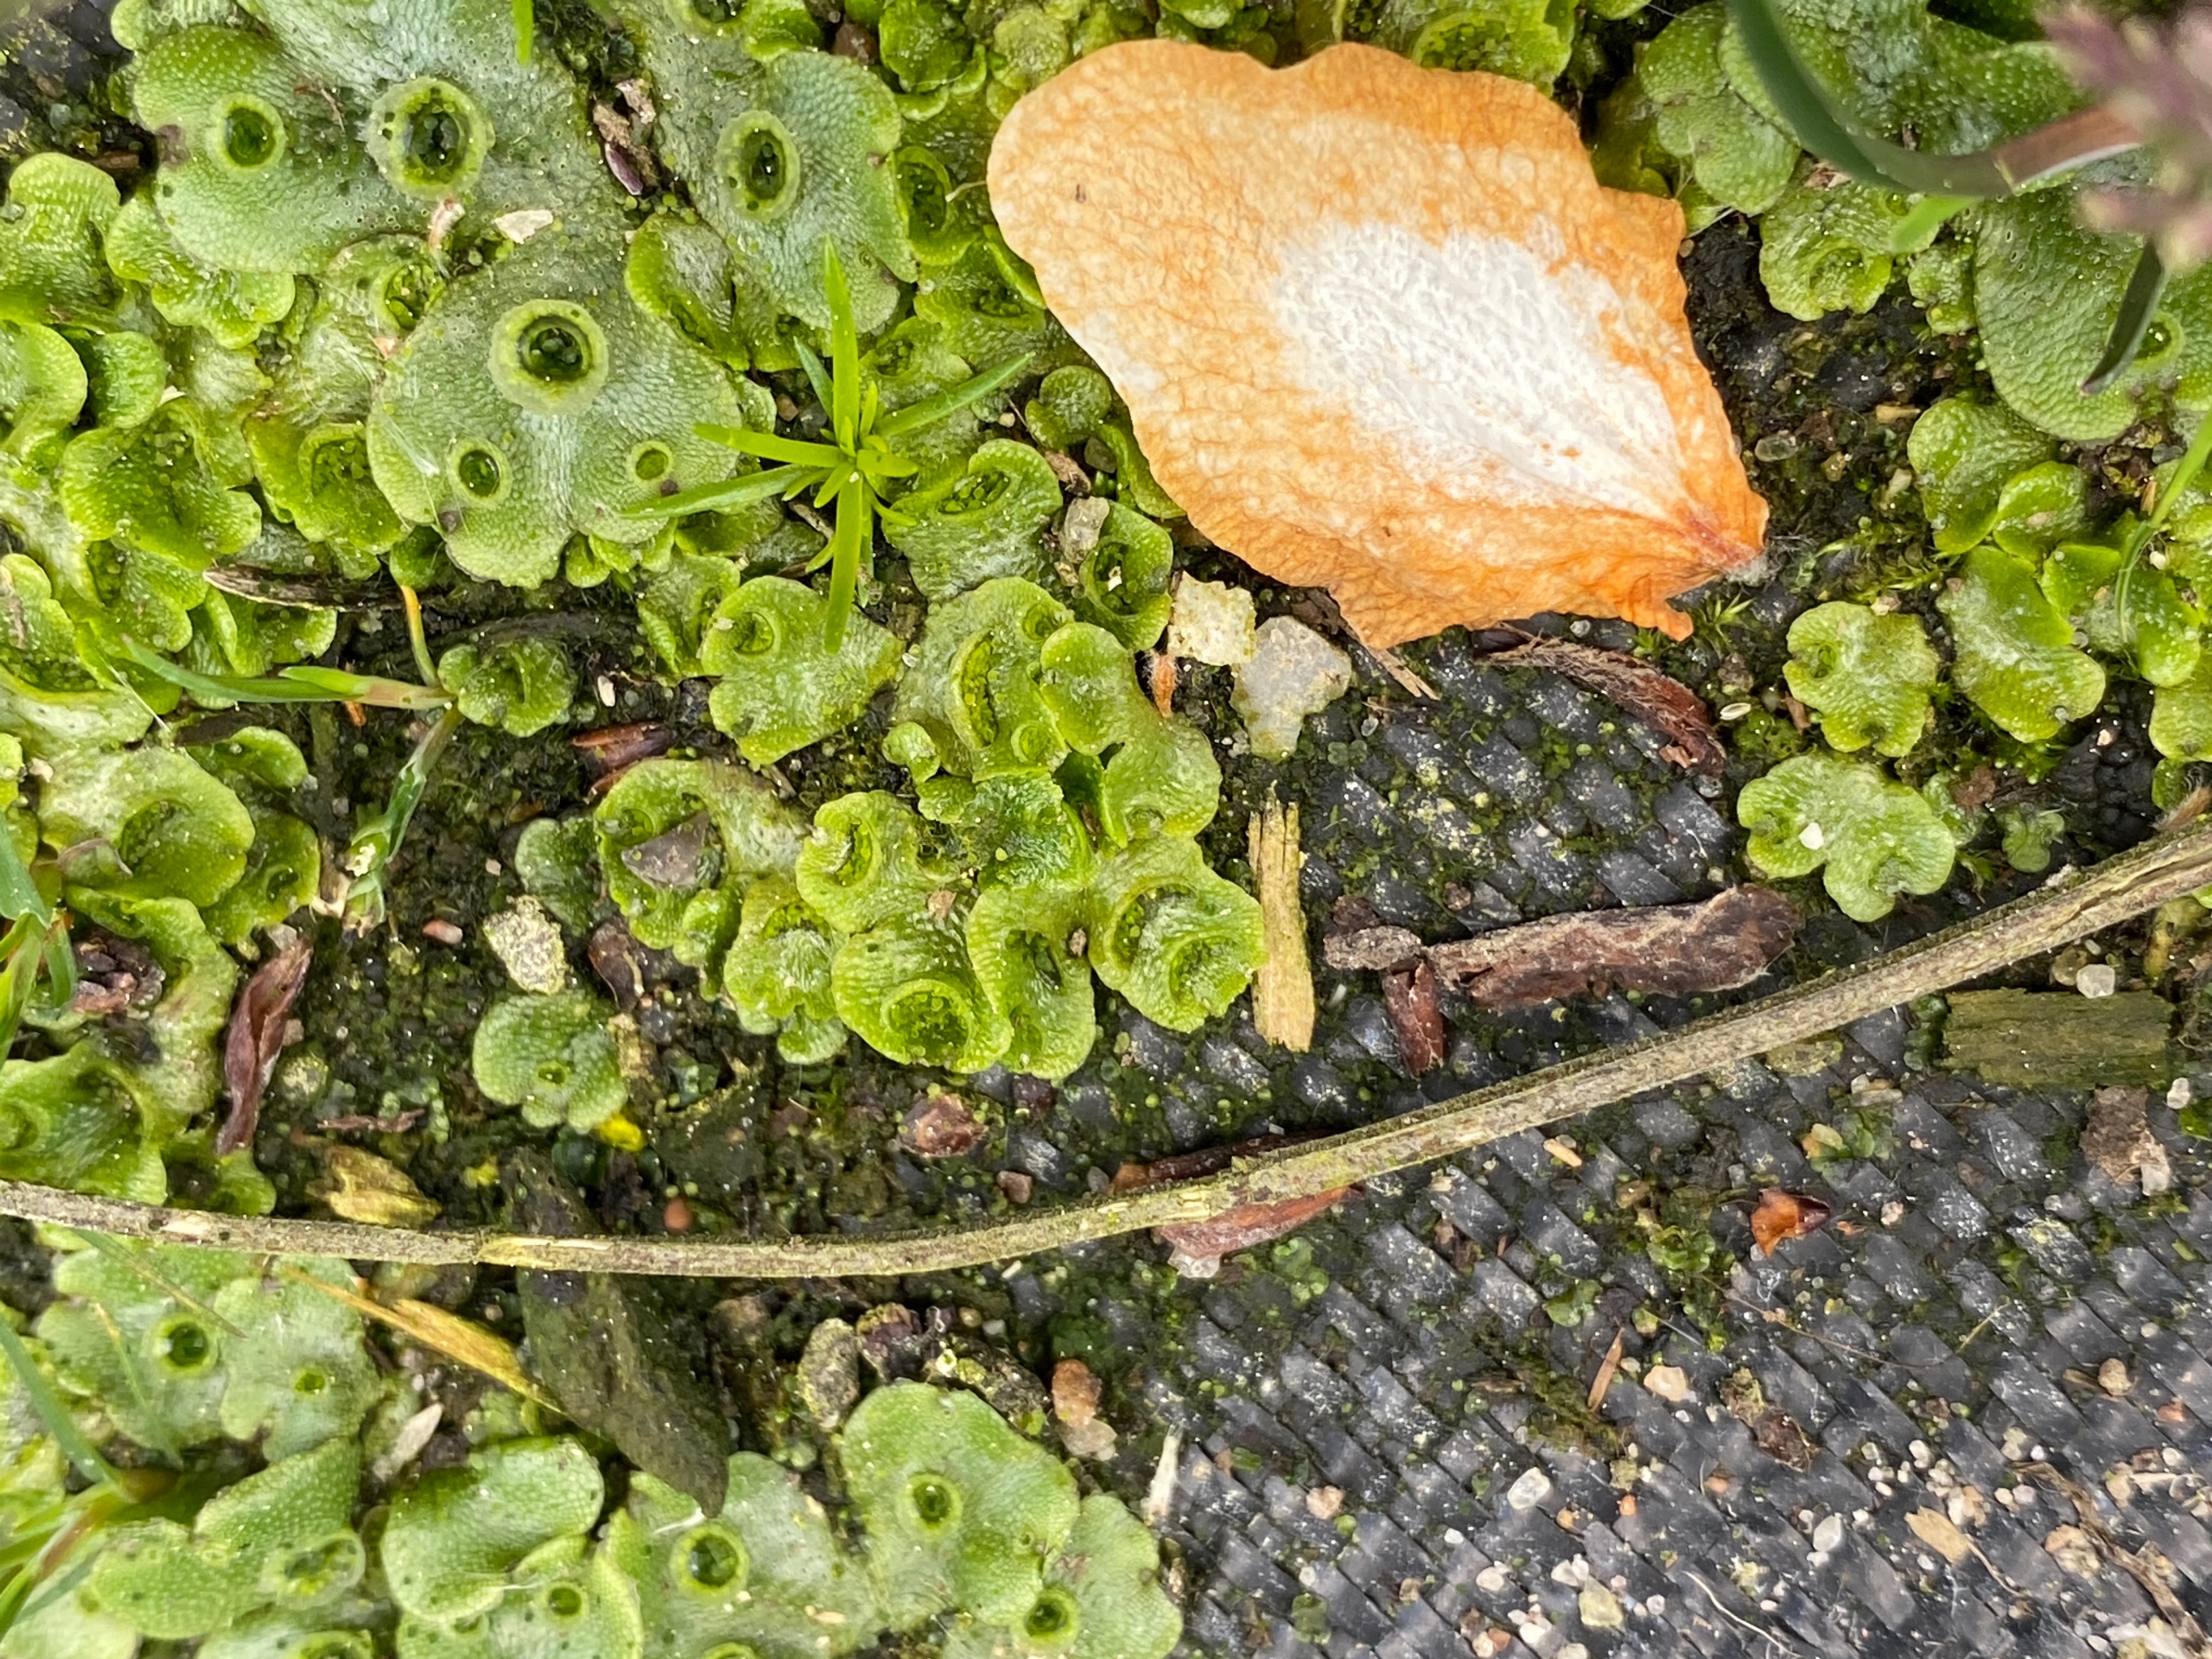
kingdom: Plantae
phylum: Marchantiophyta
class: Marchantiopsida
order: Lunulariales
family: Lunulariaceae
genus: Lunularia
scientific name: Lunularia cruciata
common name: Almindelig månemos
